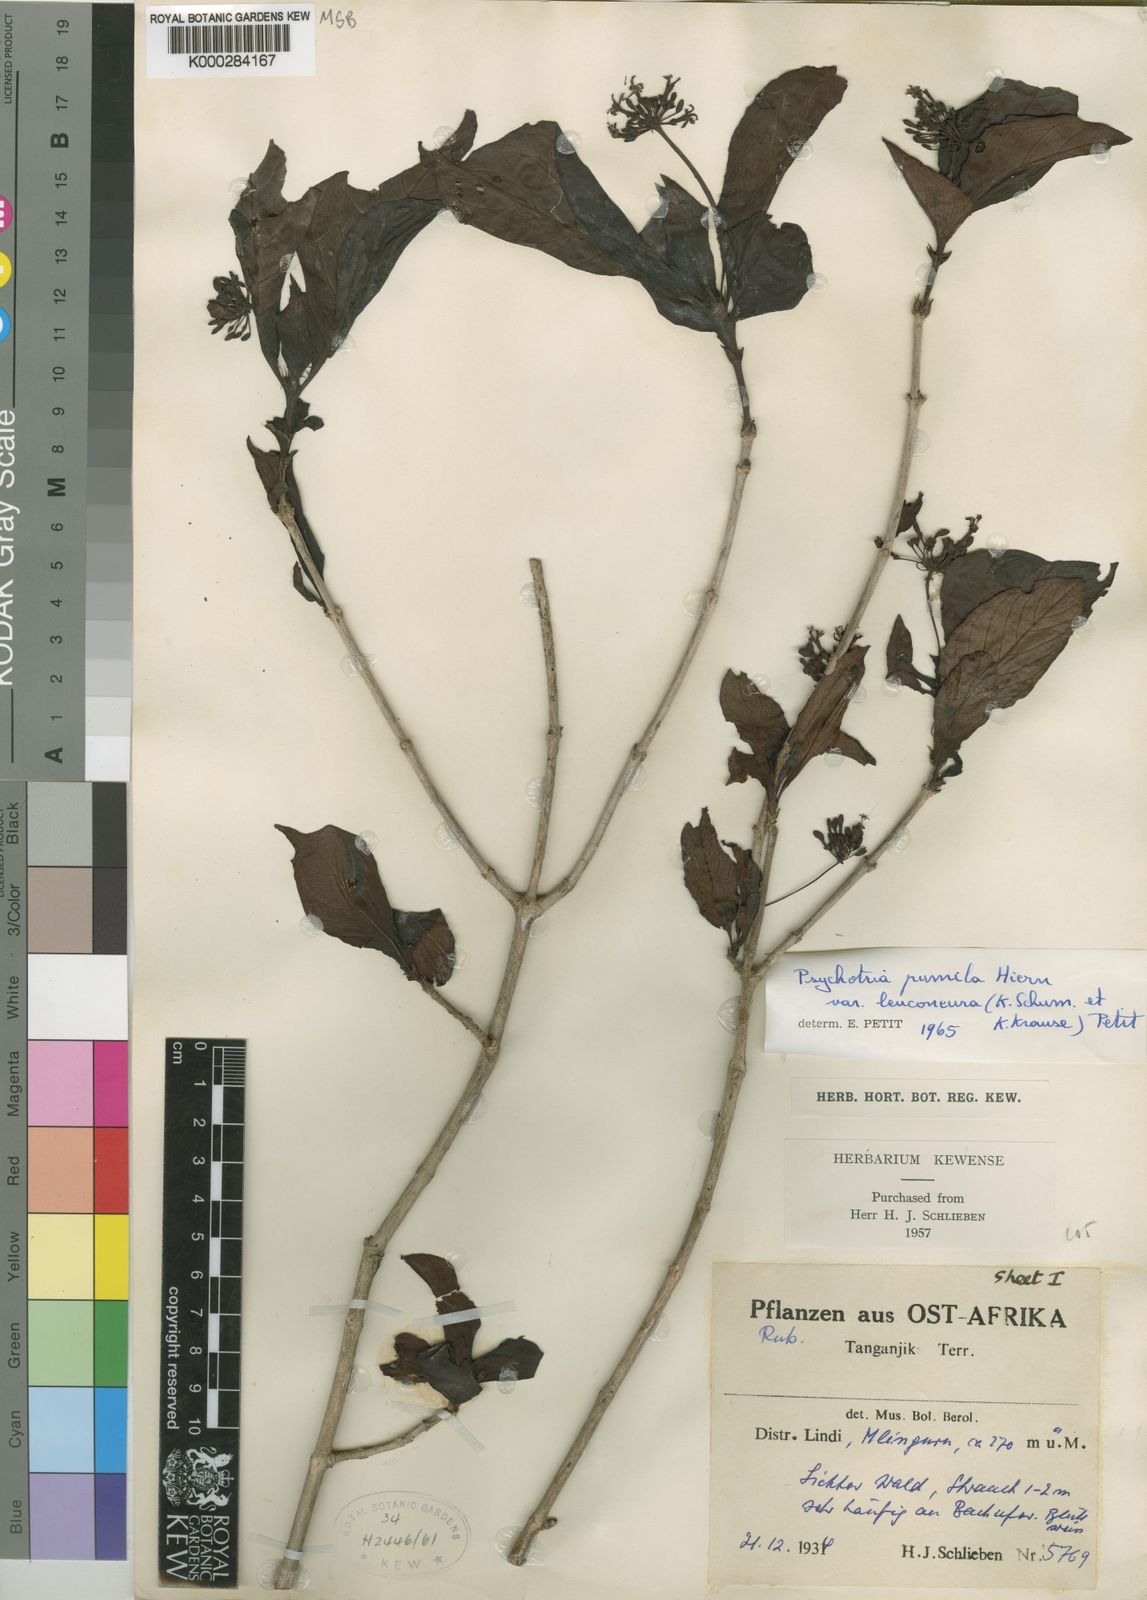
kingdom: Plantae
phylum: Tracheophyta
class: Magnoliopsida
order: Gentianales
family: Rubiaceae
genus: Psychotria
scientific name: Psychotria pumila
